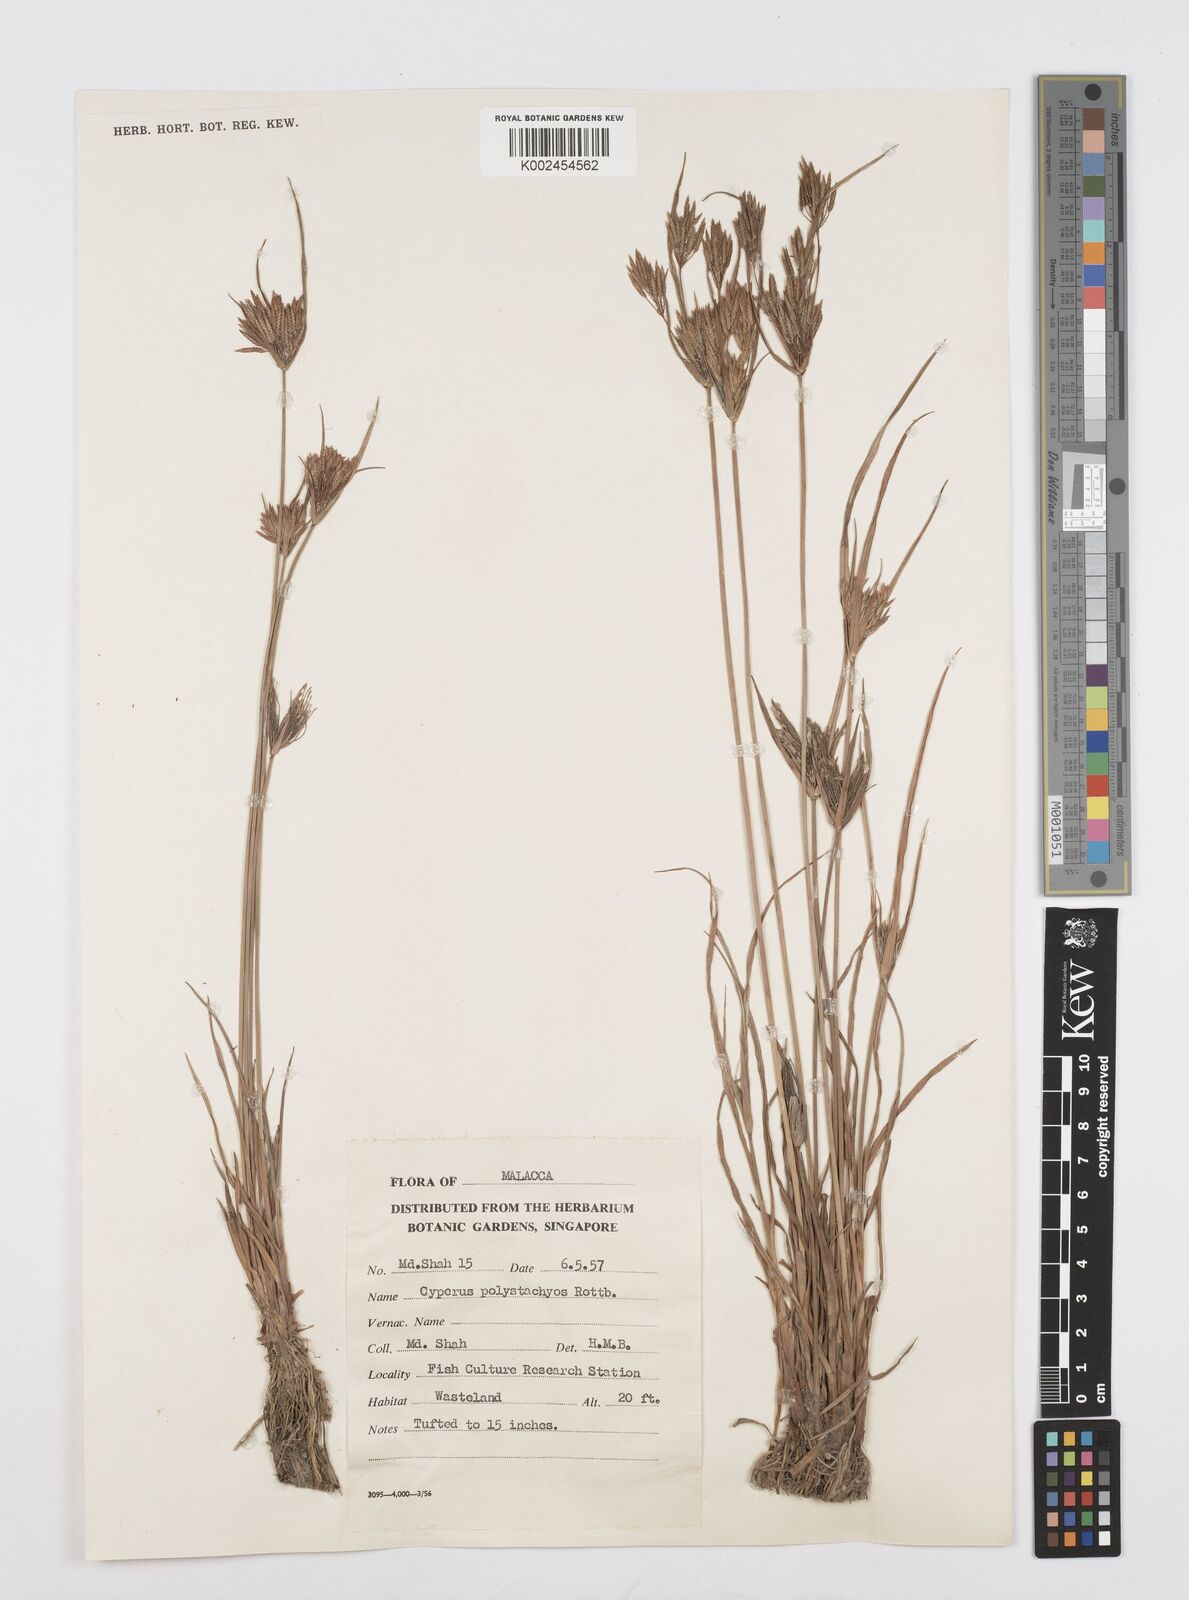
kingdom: Plantae
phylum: Tracheophyta
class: Liliopsida
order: Poales
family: Cyperaceae
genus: Cyperus
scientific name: Cyperus polystachyos
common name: Bunchy flat sedge
